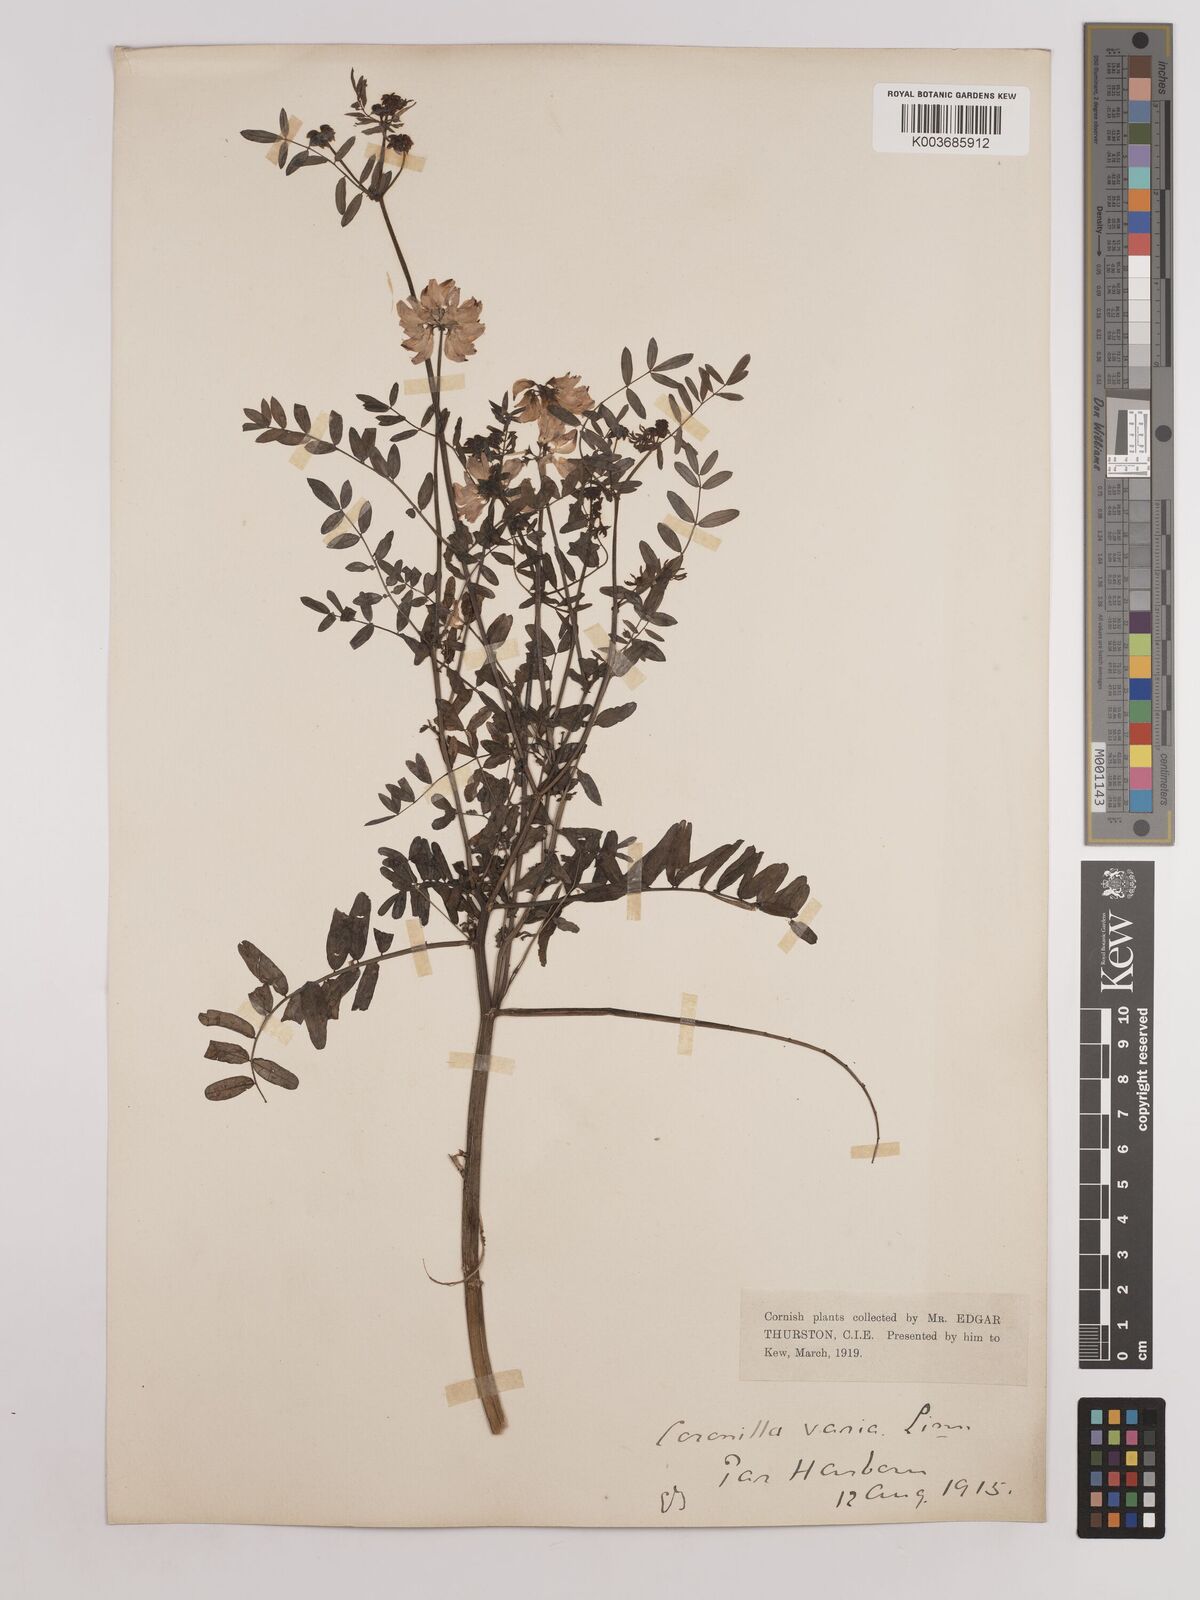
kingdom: Plantae
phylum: Tracheophyta
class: Magnoliopsida
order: Fabales
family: Fabaceae
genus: Coronilla
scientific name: Coronilla varia
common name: Crownvetch
